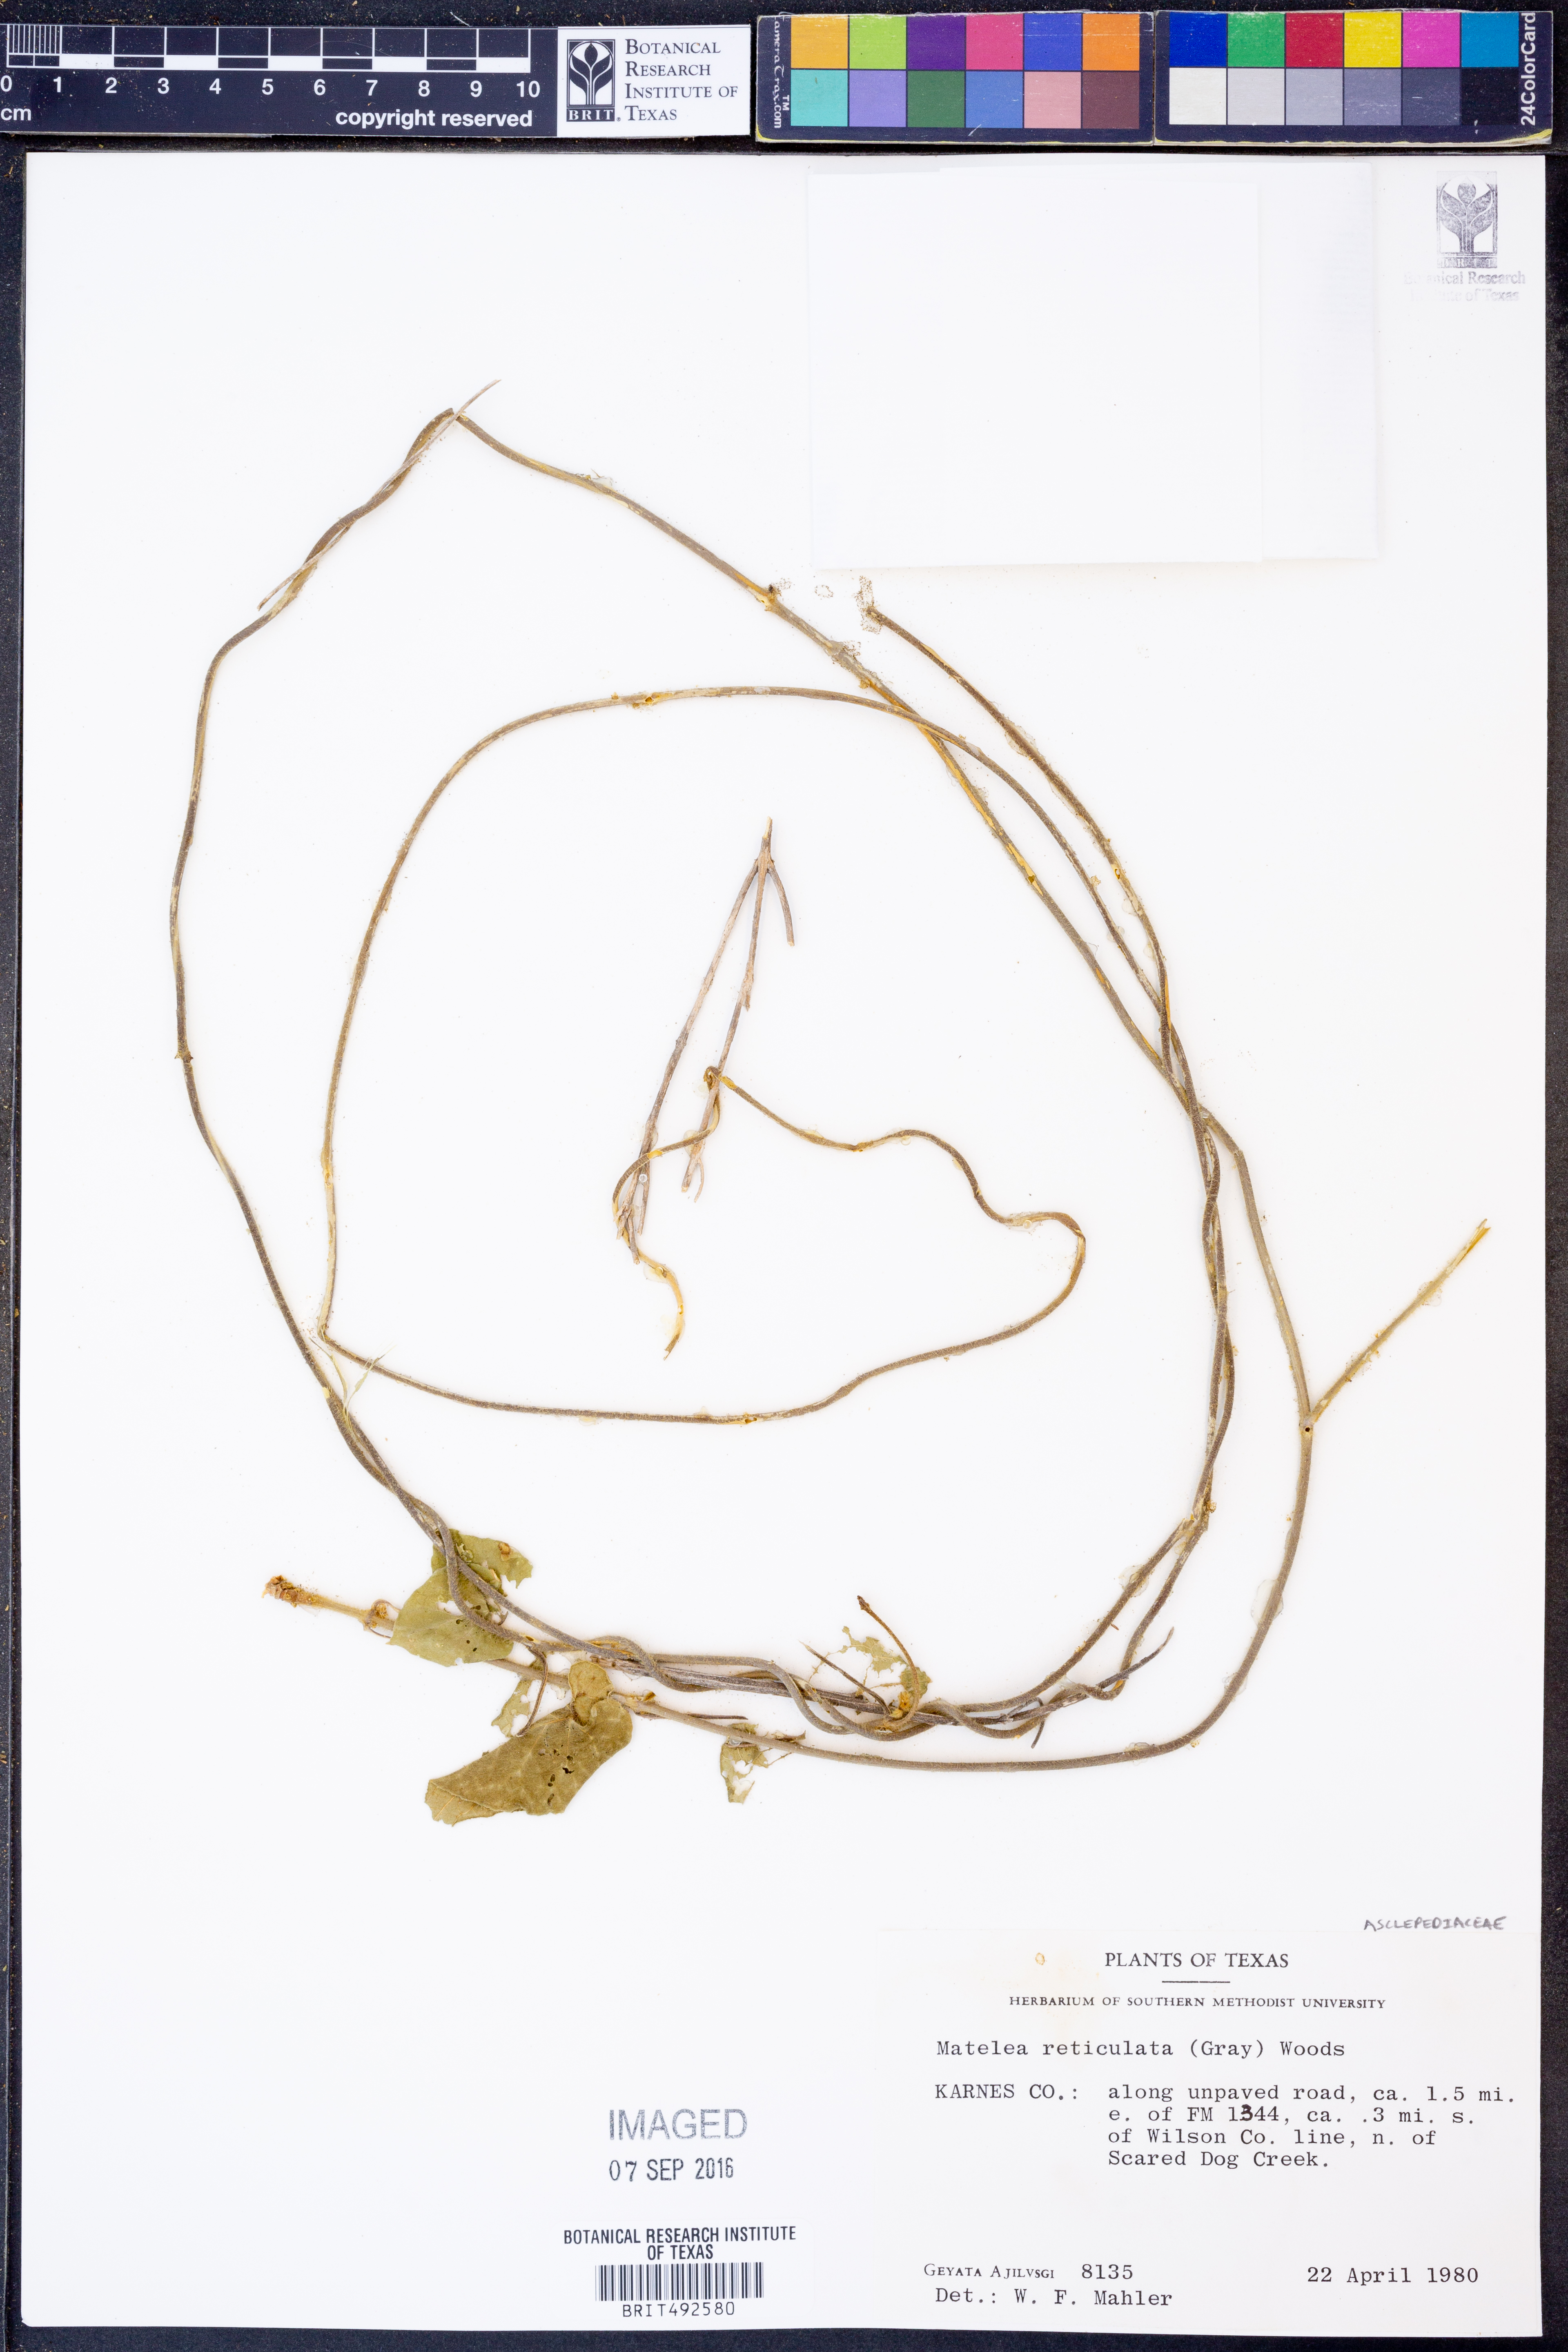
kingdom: Plantae
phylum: Tracheophyta
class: Magnoliopsida
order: Gentianales
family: Apocynaceae
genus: Dictyanthus
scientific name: Dictyanthus reticulatus
